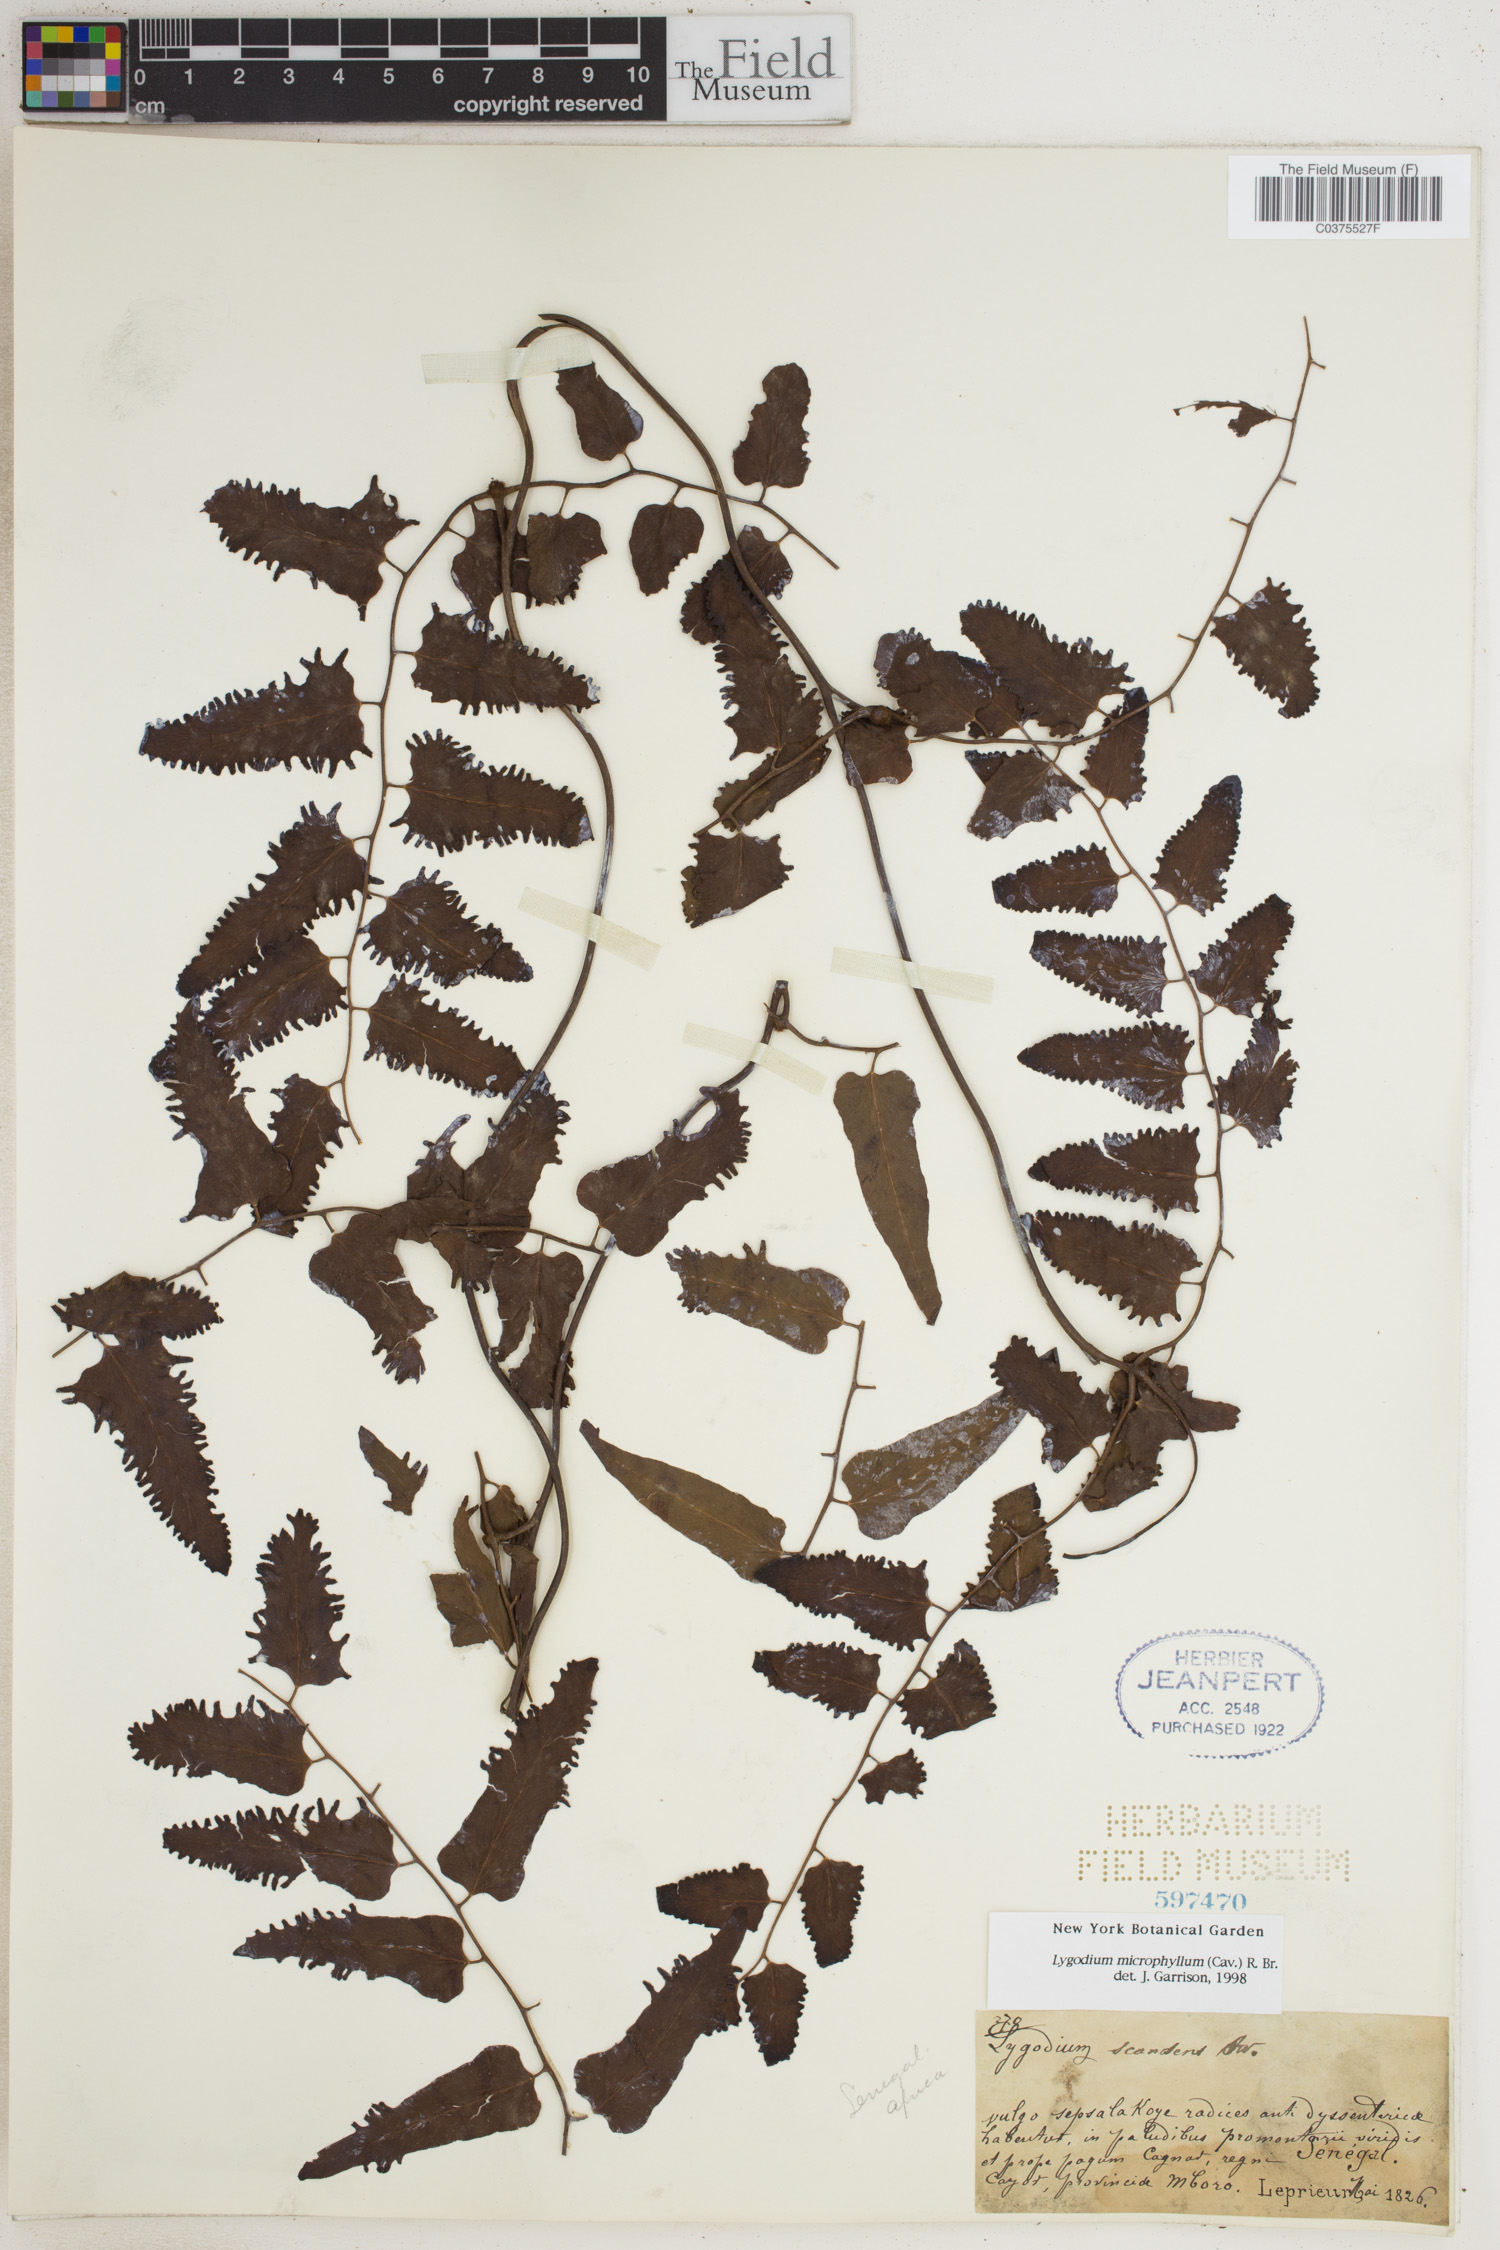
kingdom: Plantae
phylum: Tracheophyta
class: Polypodiopsida
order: Schizaeales
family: Lygodiaceae
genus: Lygodium
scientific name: Lygodium microphyllum
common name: Small-leaf climbing fern
